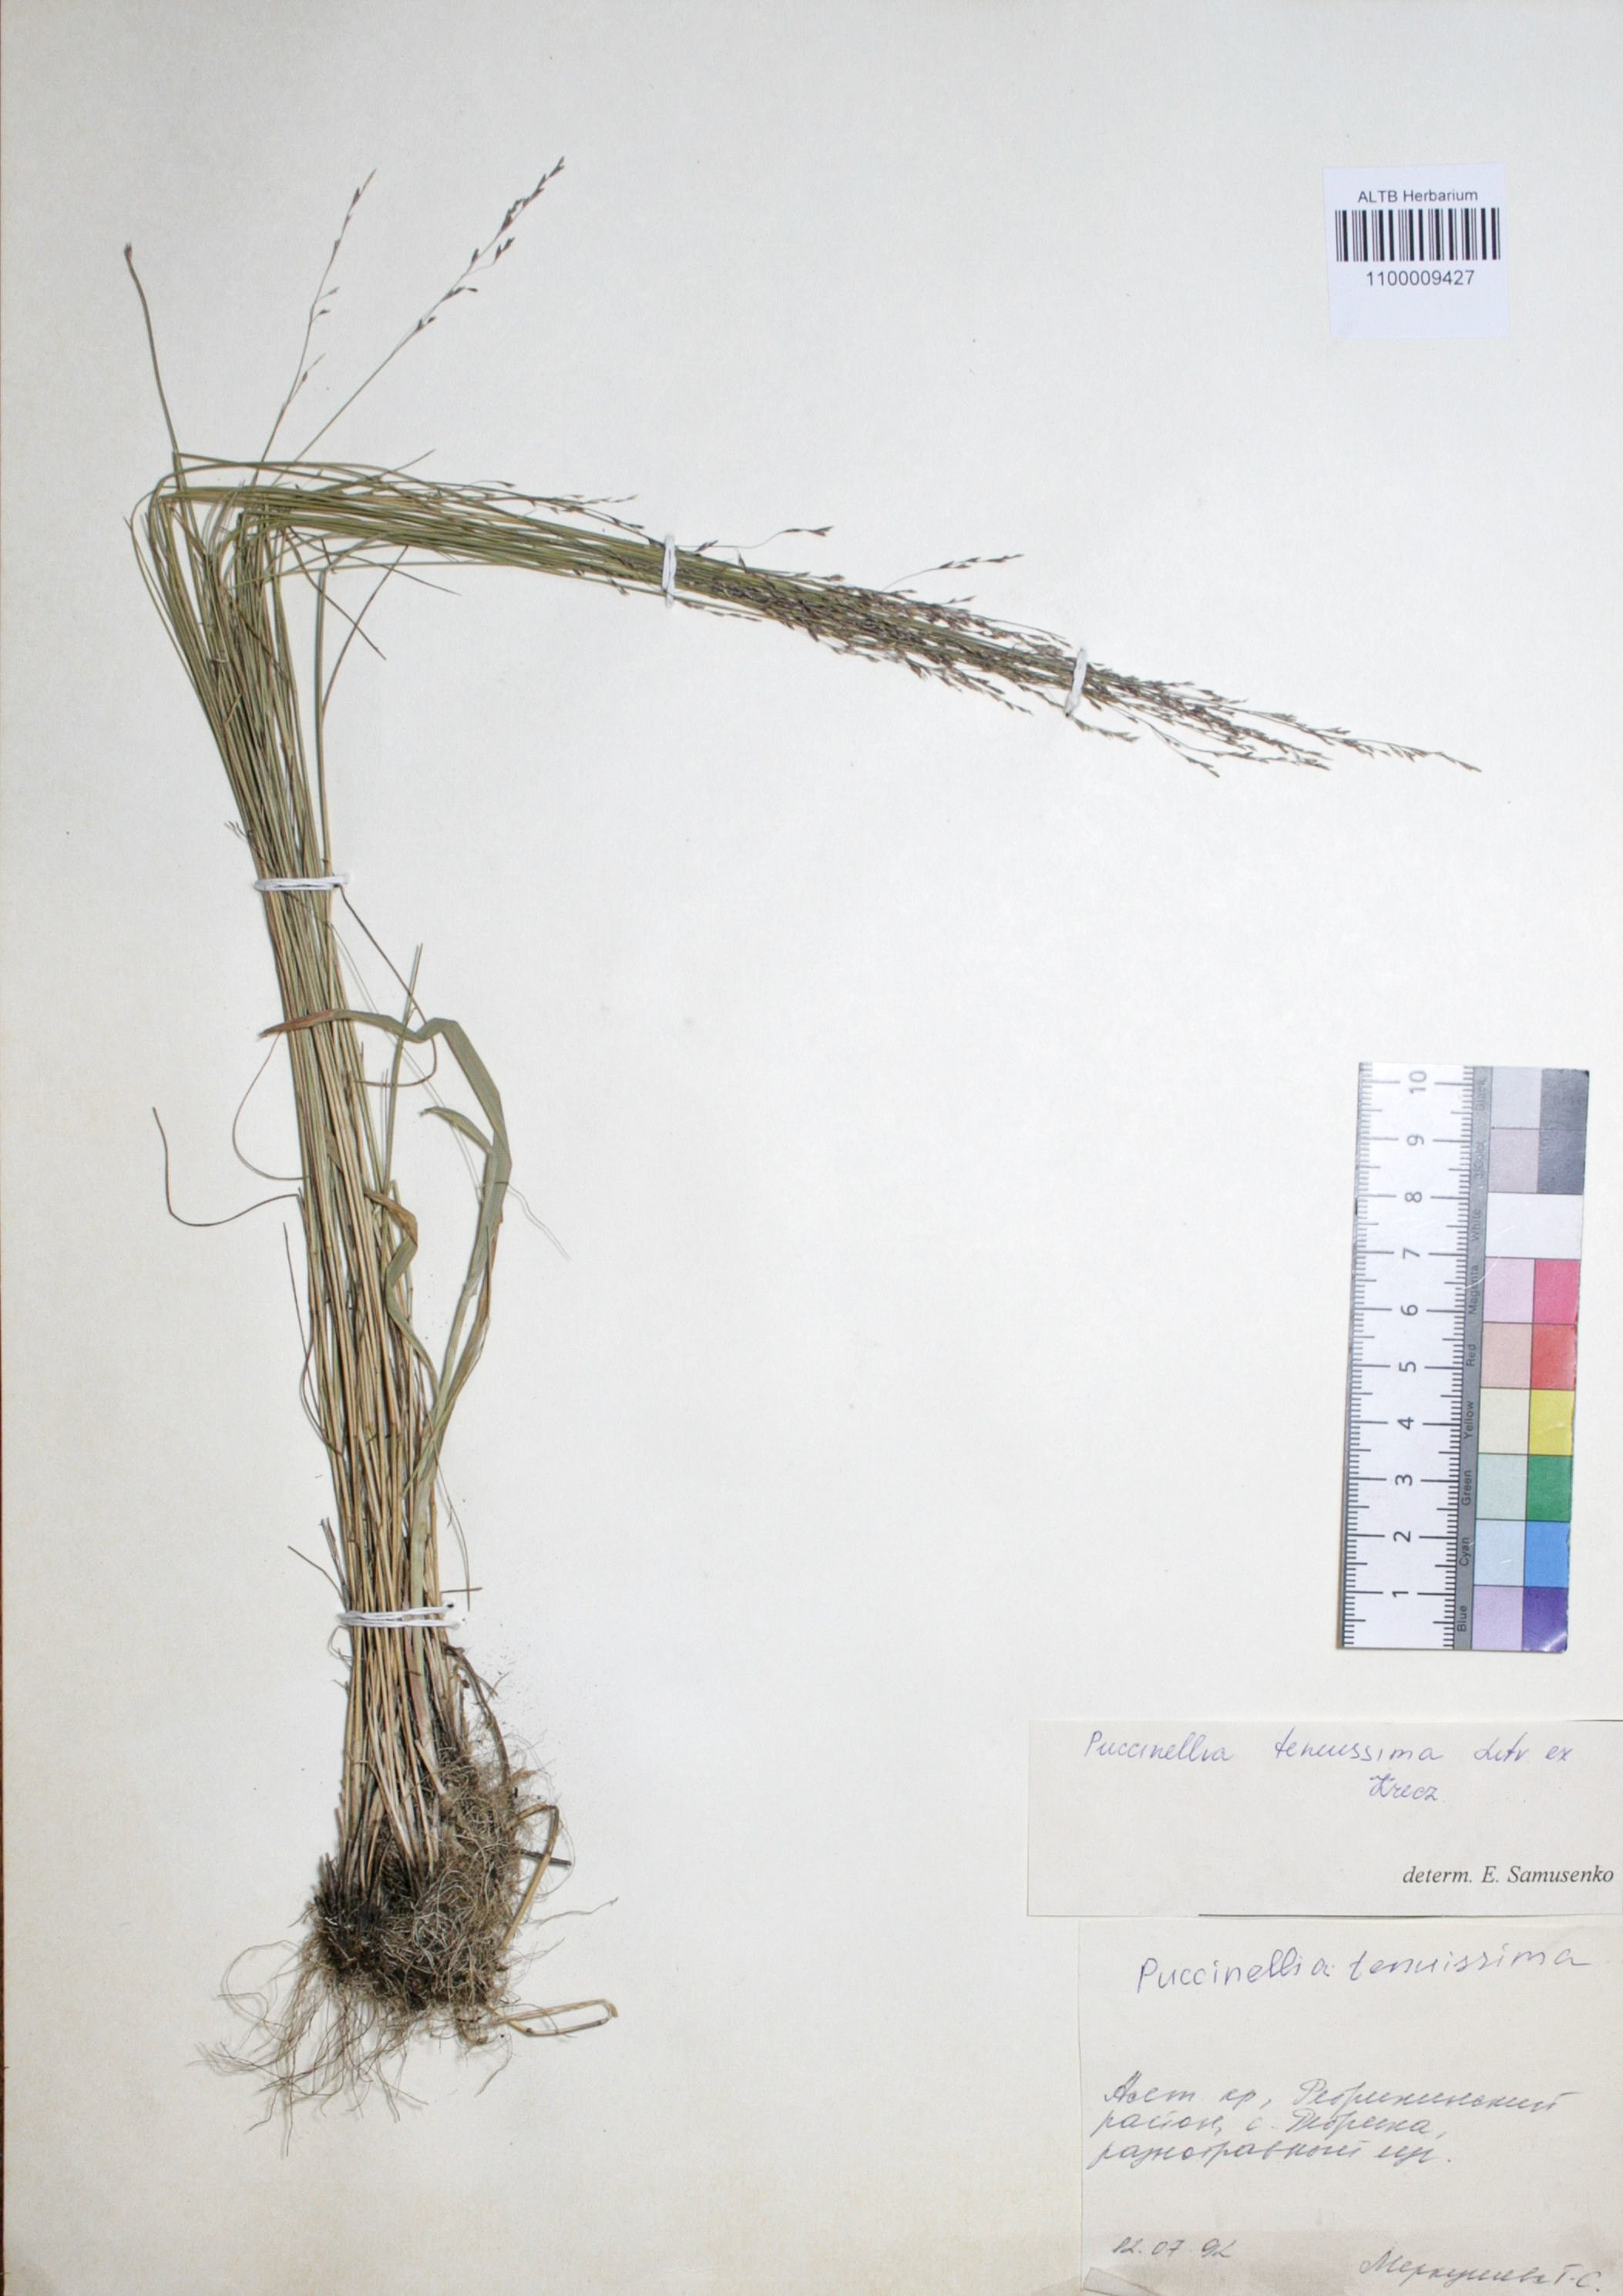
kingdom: Plantae
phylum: Tracheophyta
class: Liliopsida
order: Poales
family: Poaceae
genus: Puccinellia
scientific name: Puccinellia tenuiflora
